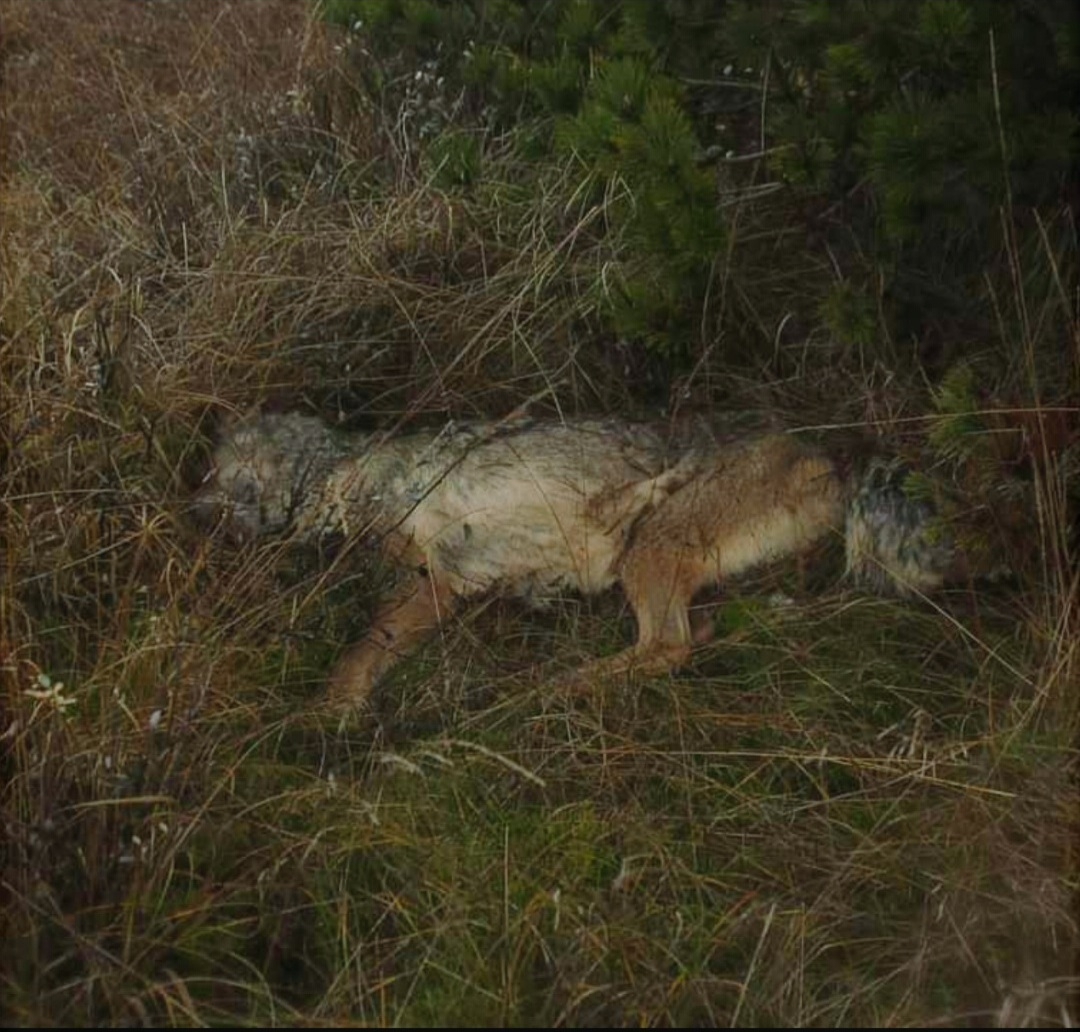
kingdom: Animalia
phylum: Chordata
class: Mammalia
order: Carnivora
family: Canidae
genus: Canis
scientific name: Canis lupus
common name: Ulv
